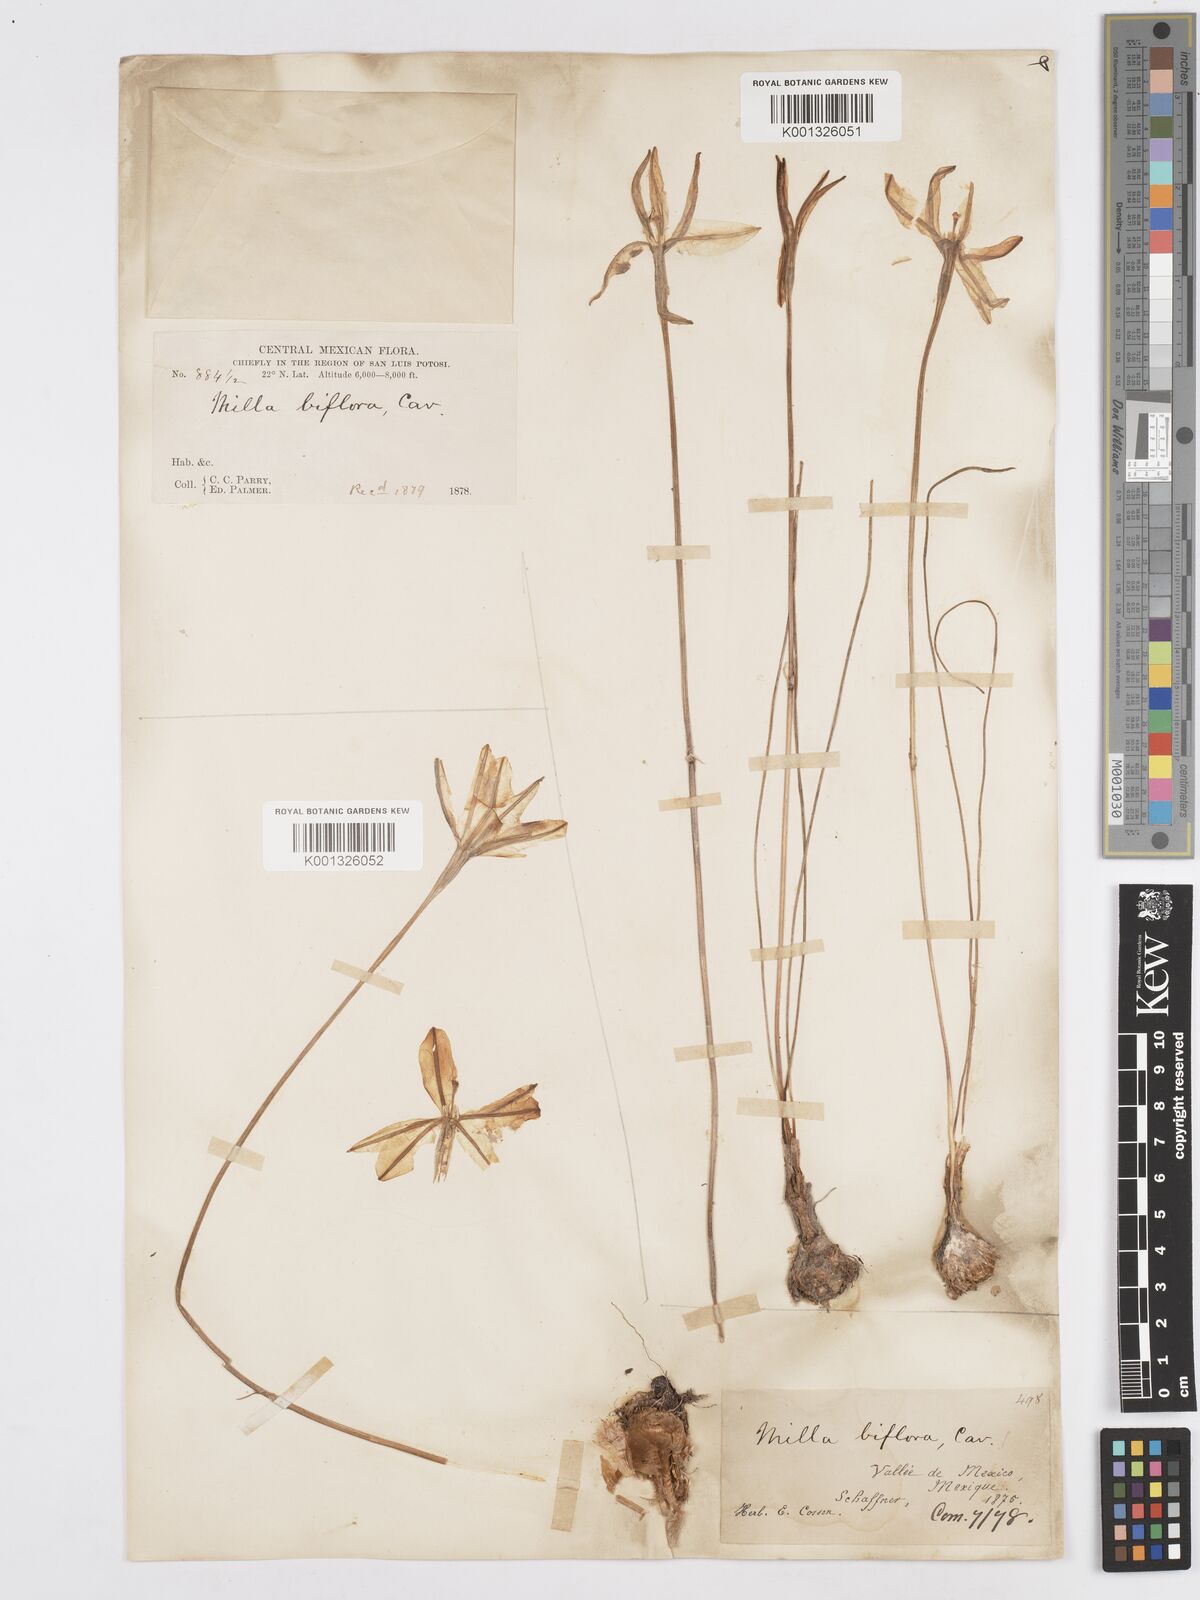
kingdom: Plantae
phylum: Tracheophyta
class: Liliopsida
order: Asparagales
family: Asparagaceae
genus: Milla
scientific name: Milla biflora
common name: Mexican-star
